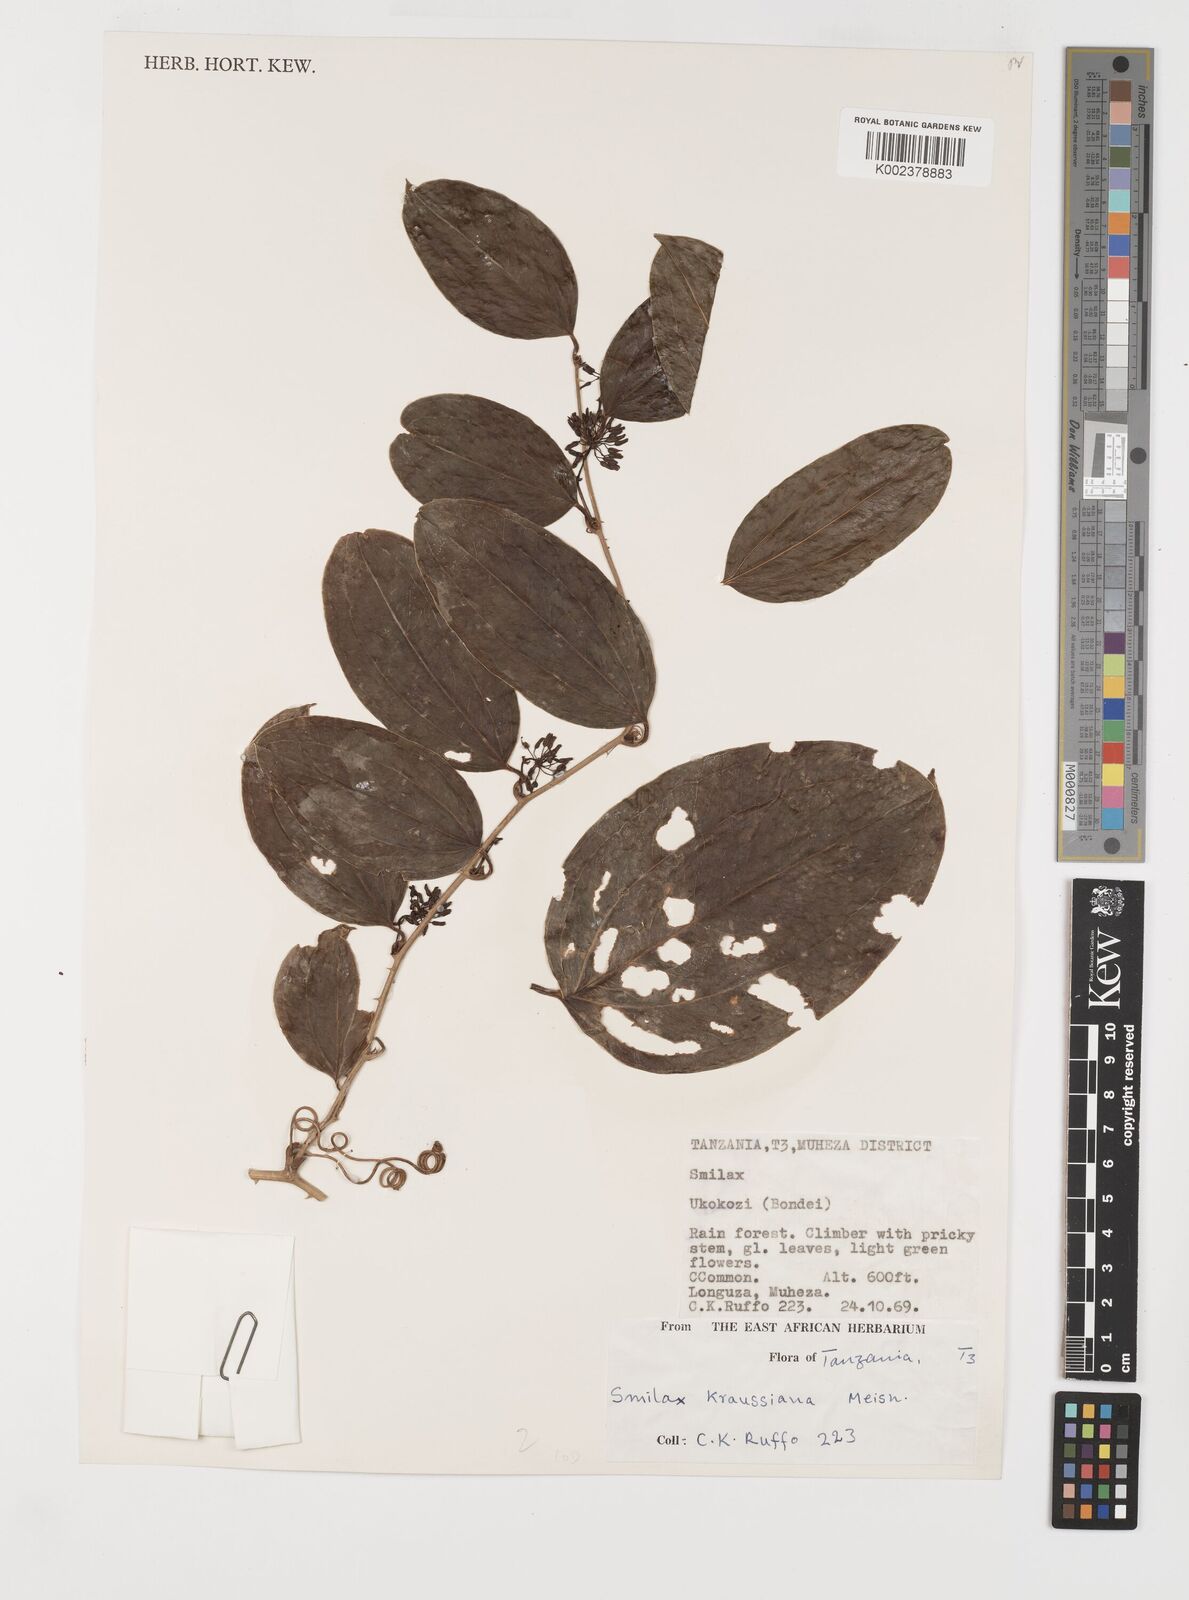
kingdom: Plantae
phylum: Tracheophyta
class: Liliopsida
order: Liliales
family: Smilacaceae
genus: Smilax
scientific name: Smilax anceps
